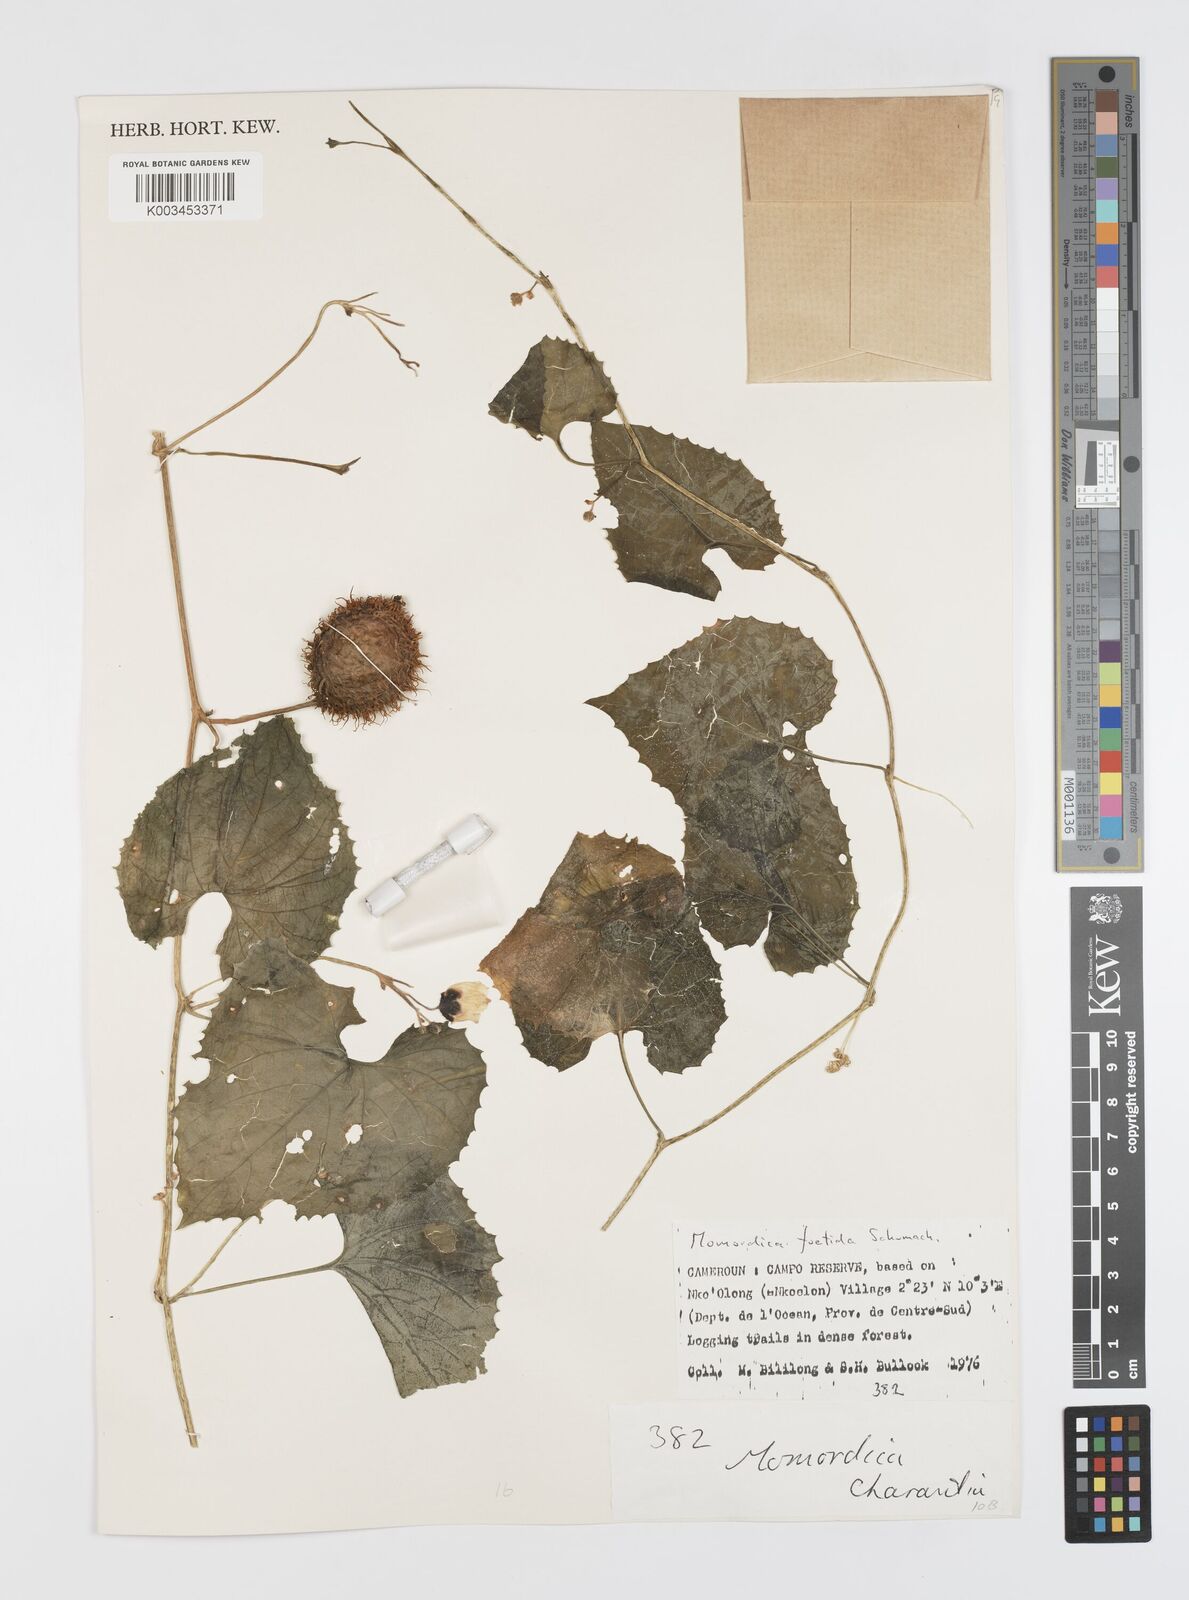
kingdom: Plantae
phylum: Tracheophyta
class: Magnoliopsida
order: Cucurbitales
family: Cucurbitaceae
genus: Momordica
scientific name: Momordica foetida
